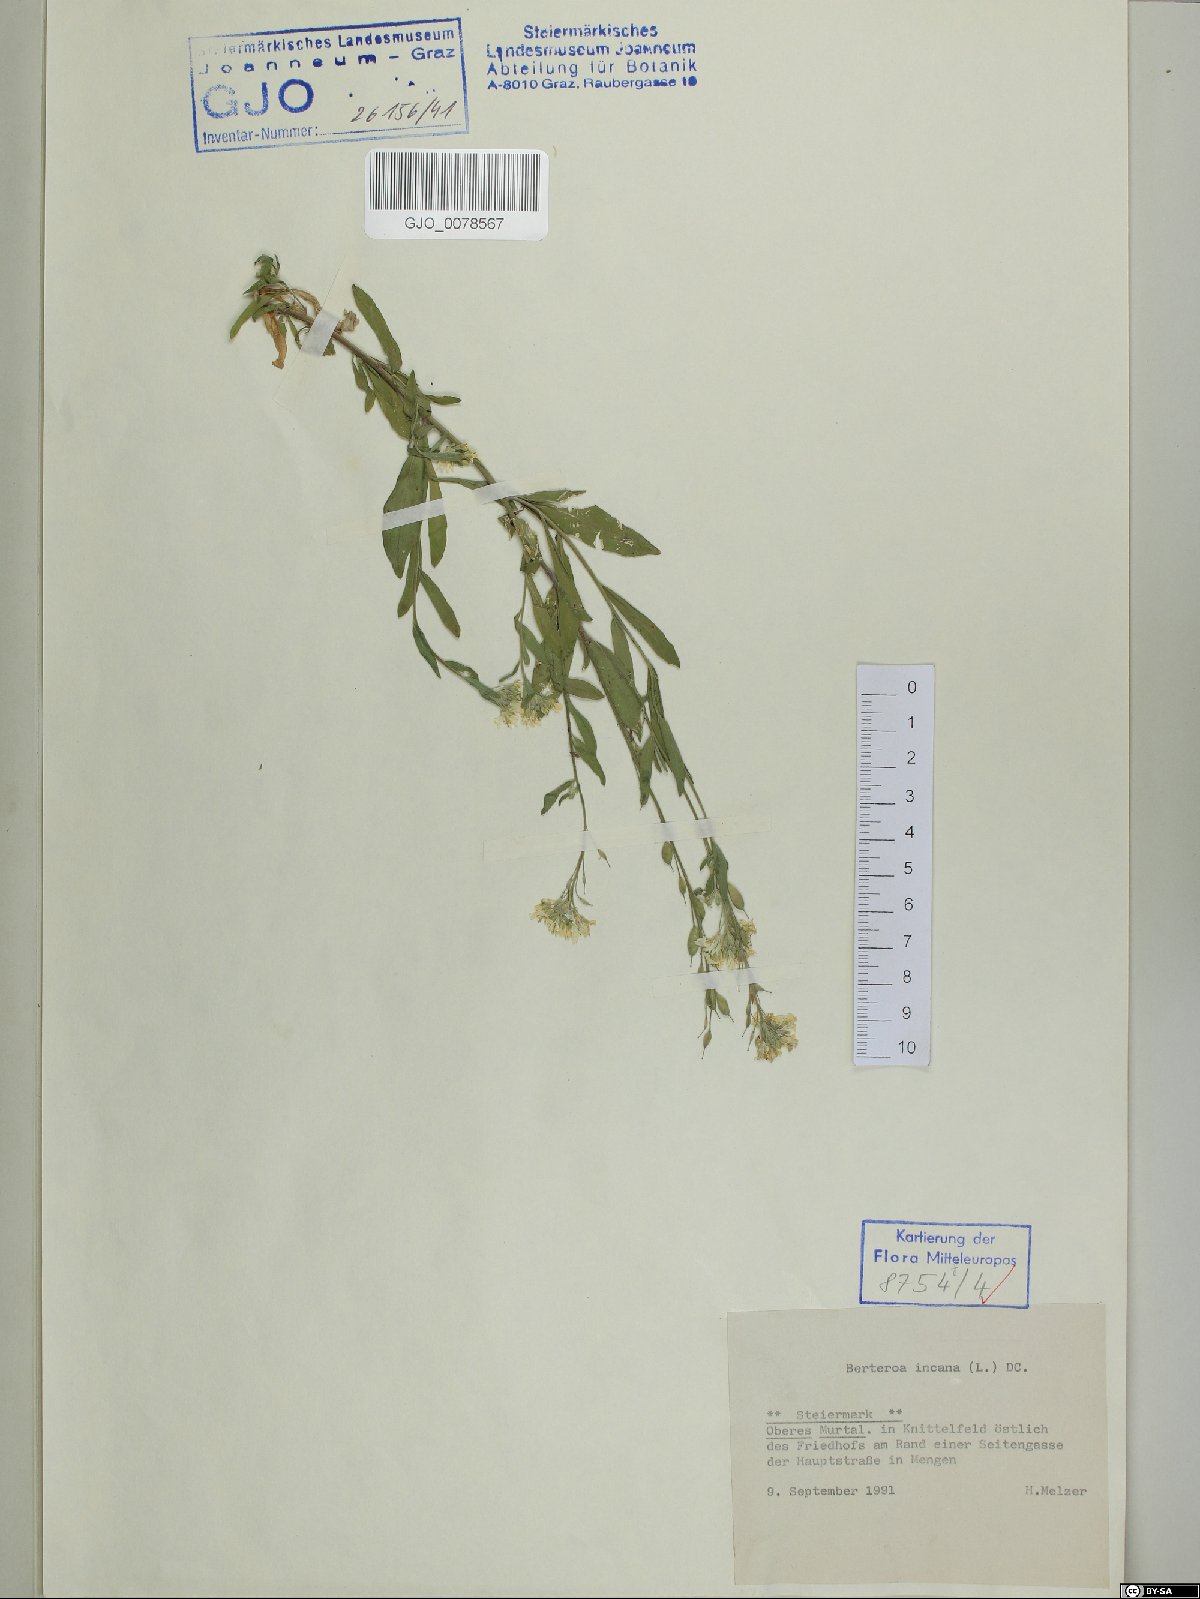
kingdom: Plantae
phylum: Tracheophyta
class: Magnoliopsida
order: Brassicales
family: Brassicaceae
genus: Berteroa
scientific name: Berteroa incana
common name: Hoary alison
